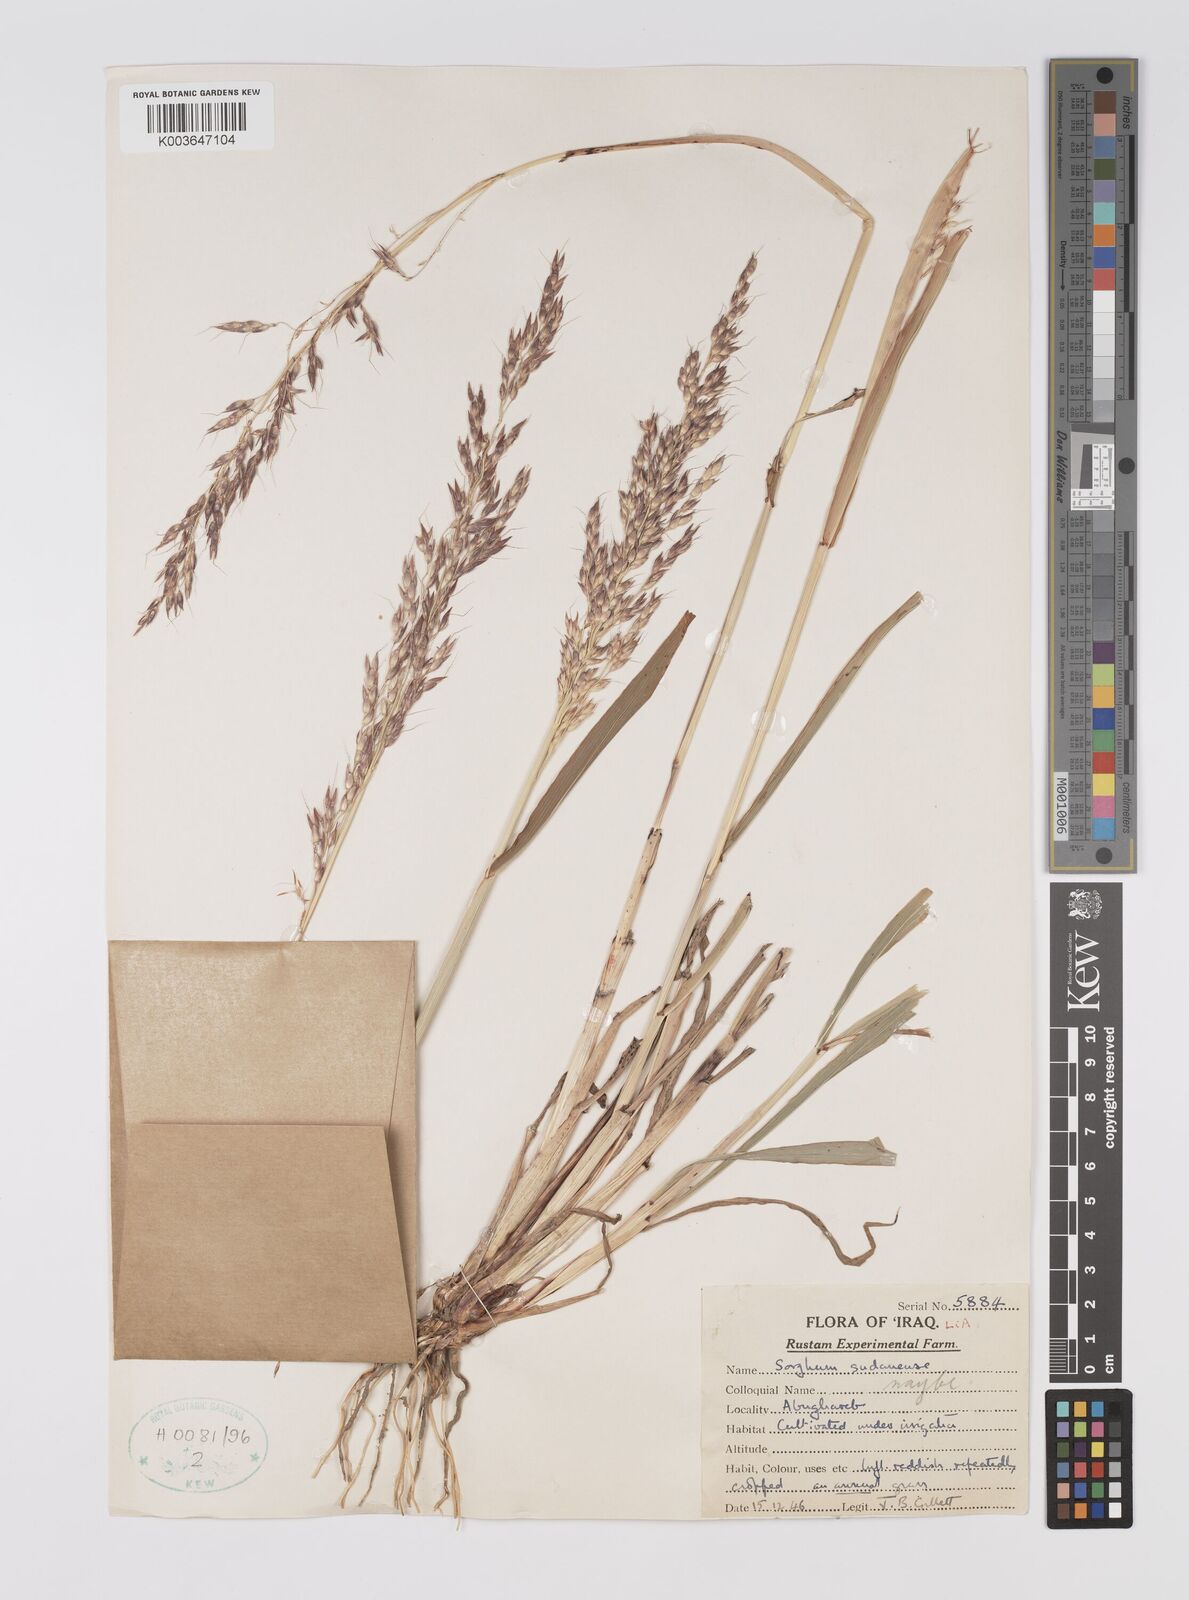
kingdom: Plantae
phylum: Tracheophyta
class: Liliopsida
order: Poales
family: Poaceae
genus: Sorghum
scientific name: Sorghum drummondii
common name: Sudangrass
